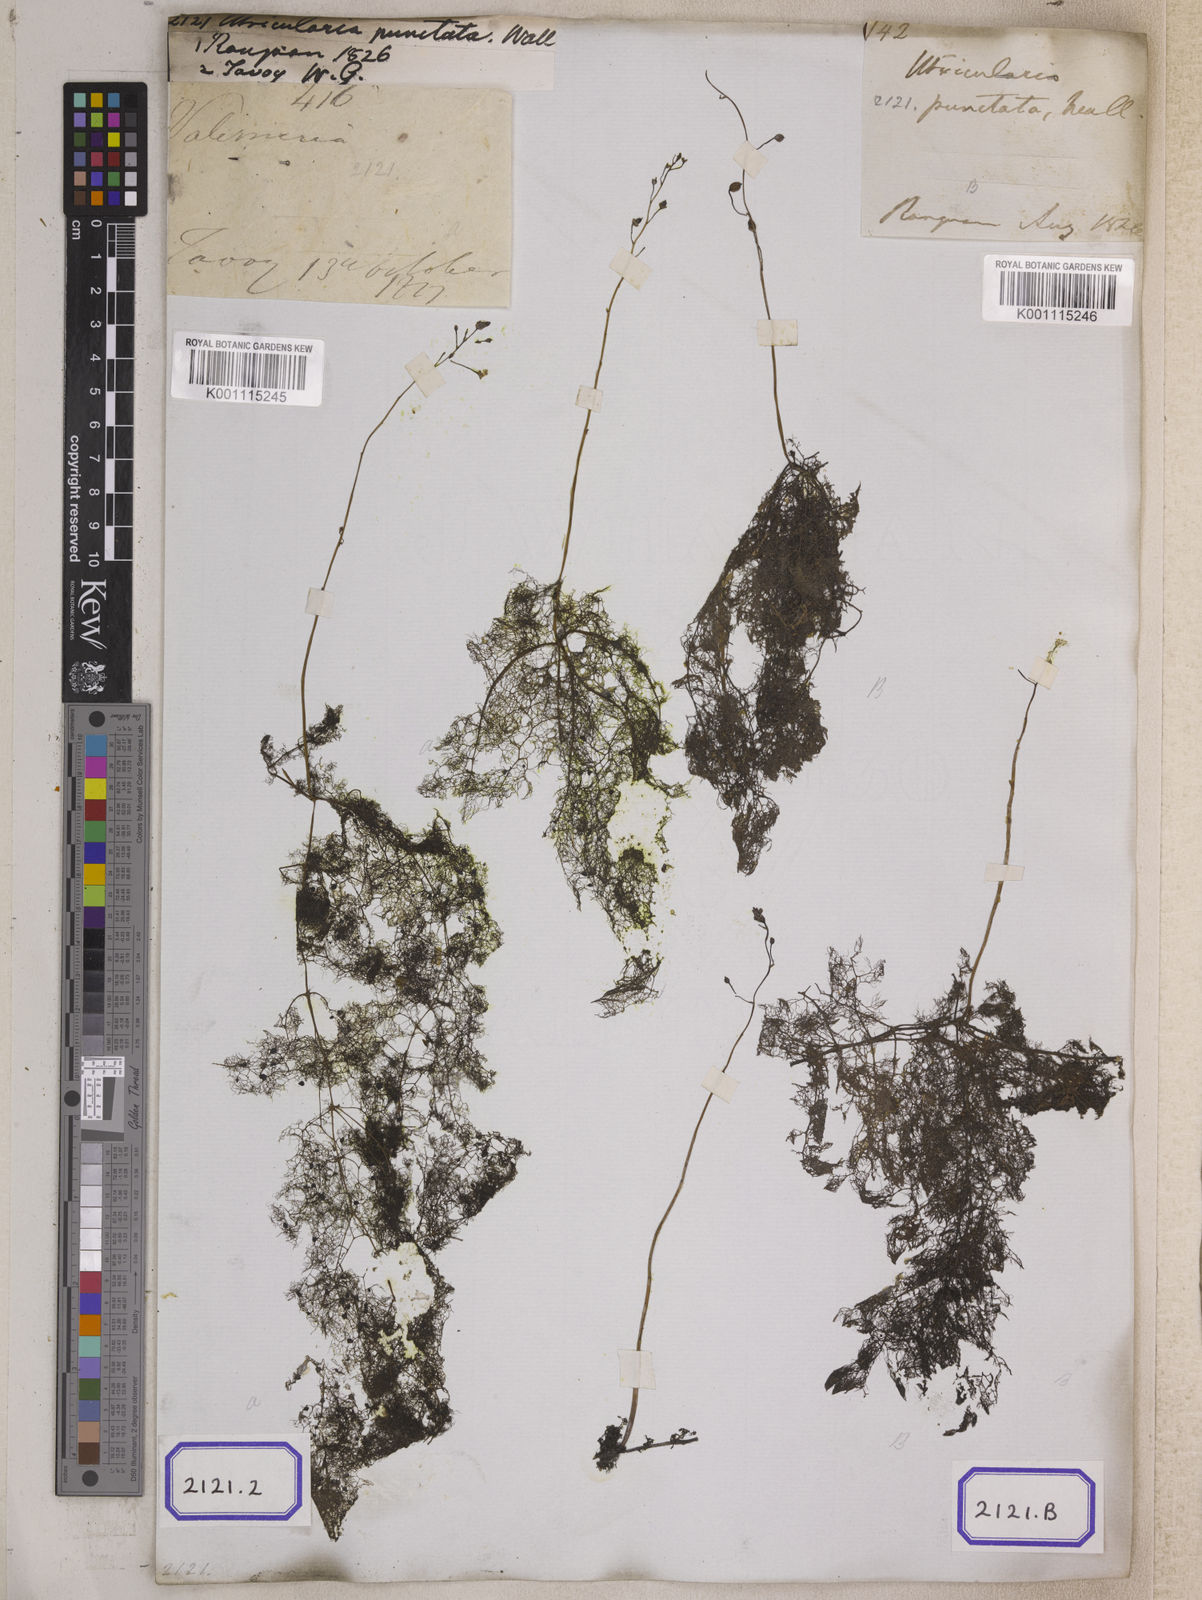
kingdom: Plantae
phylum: Tracheophyta
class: Magnoliopsida
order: Lamiales
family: Lentibulariaceae
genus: Utricularia
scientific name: Utricularia
